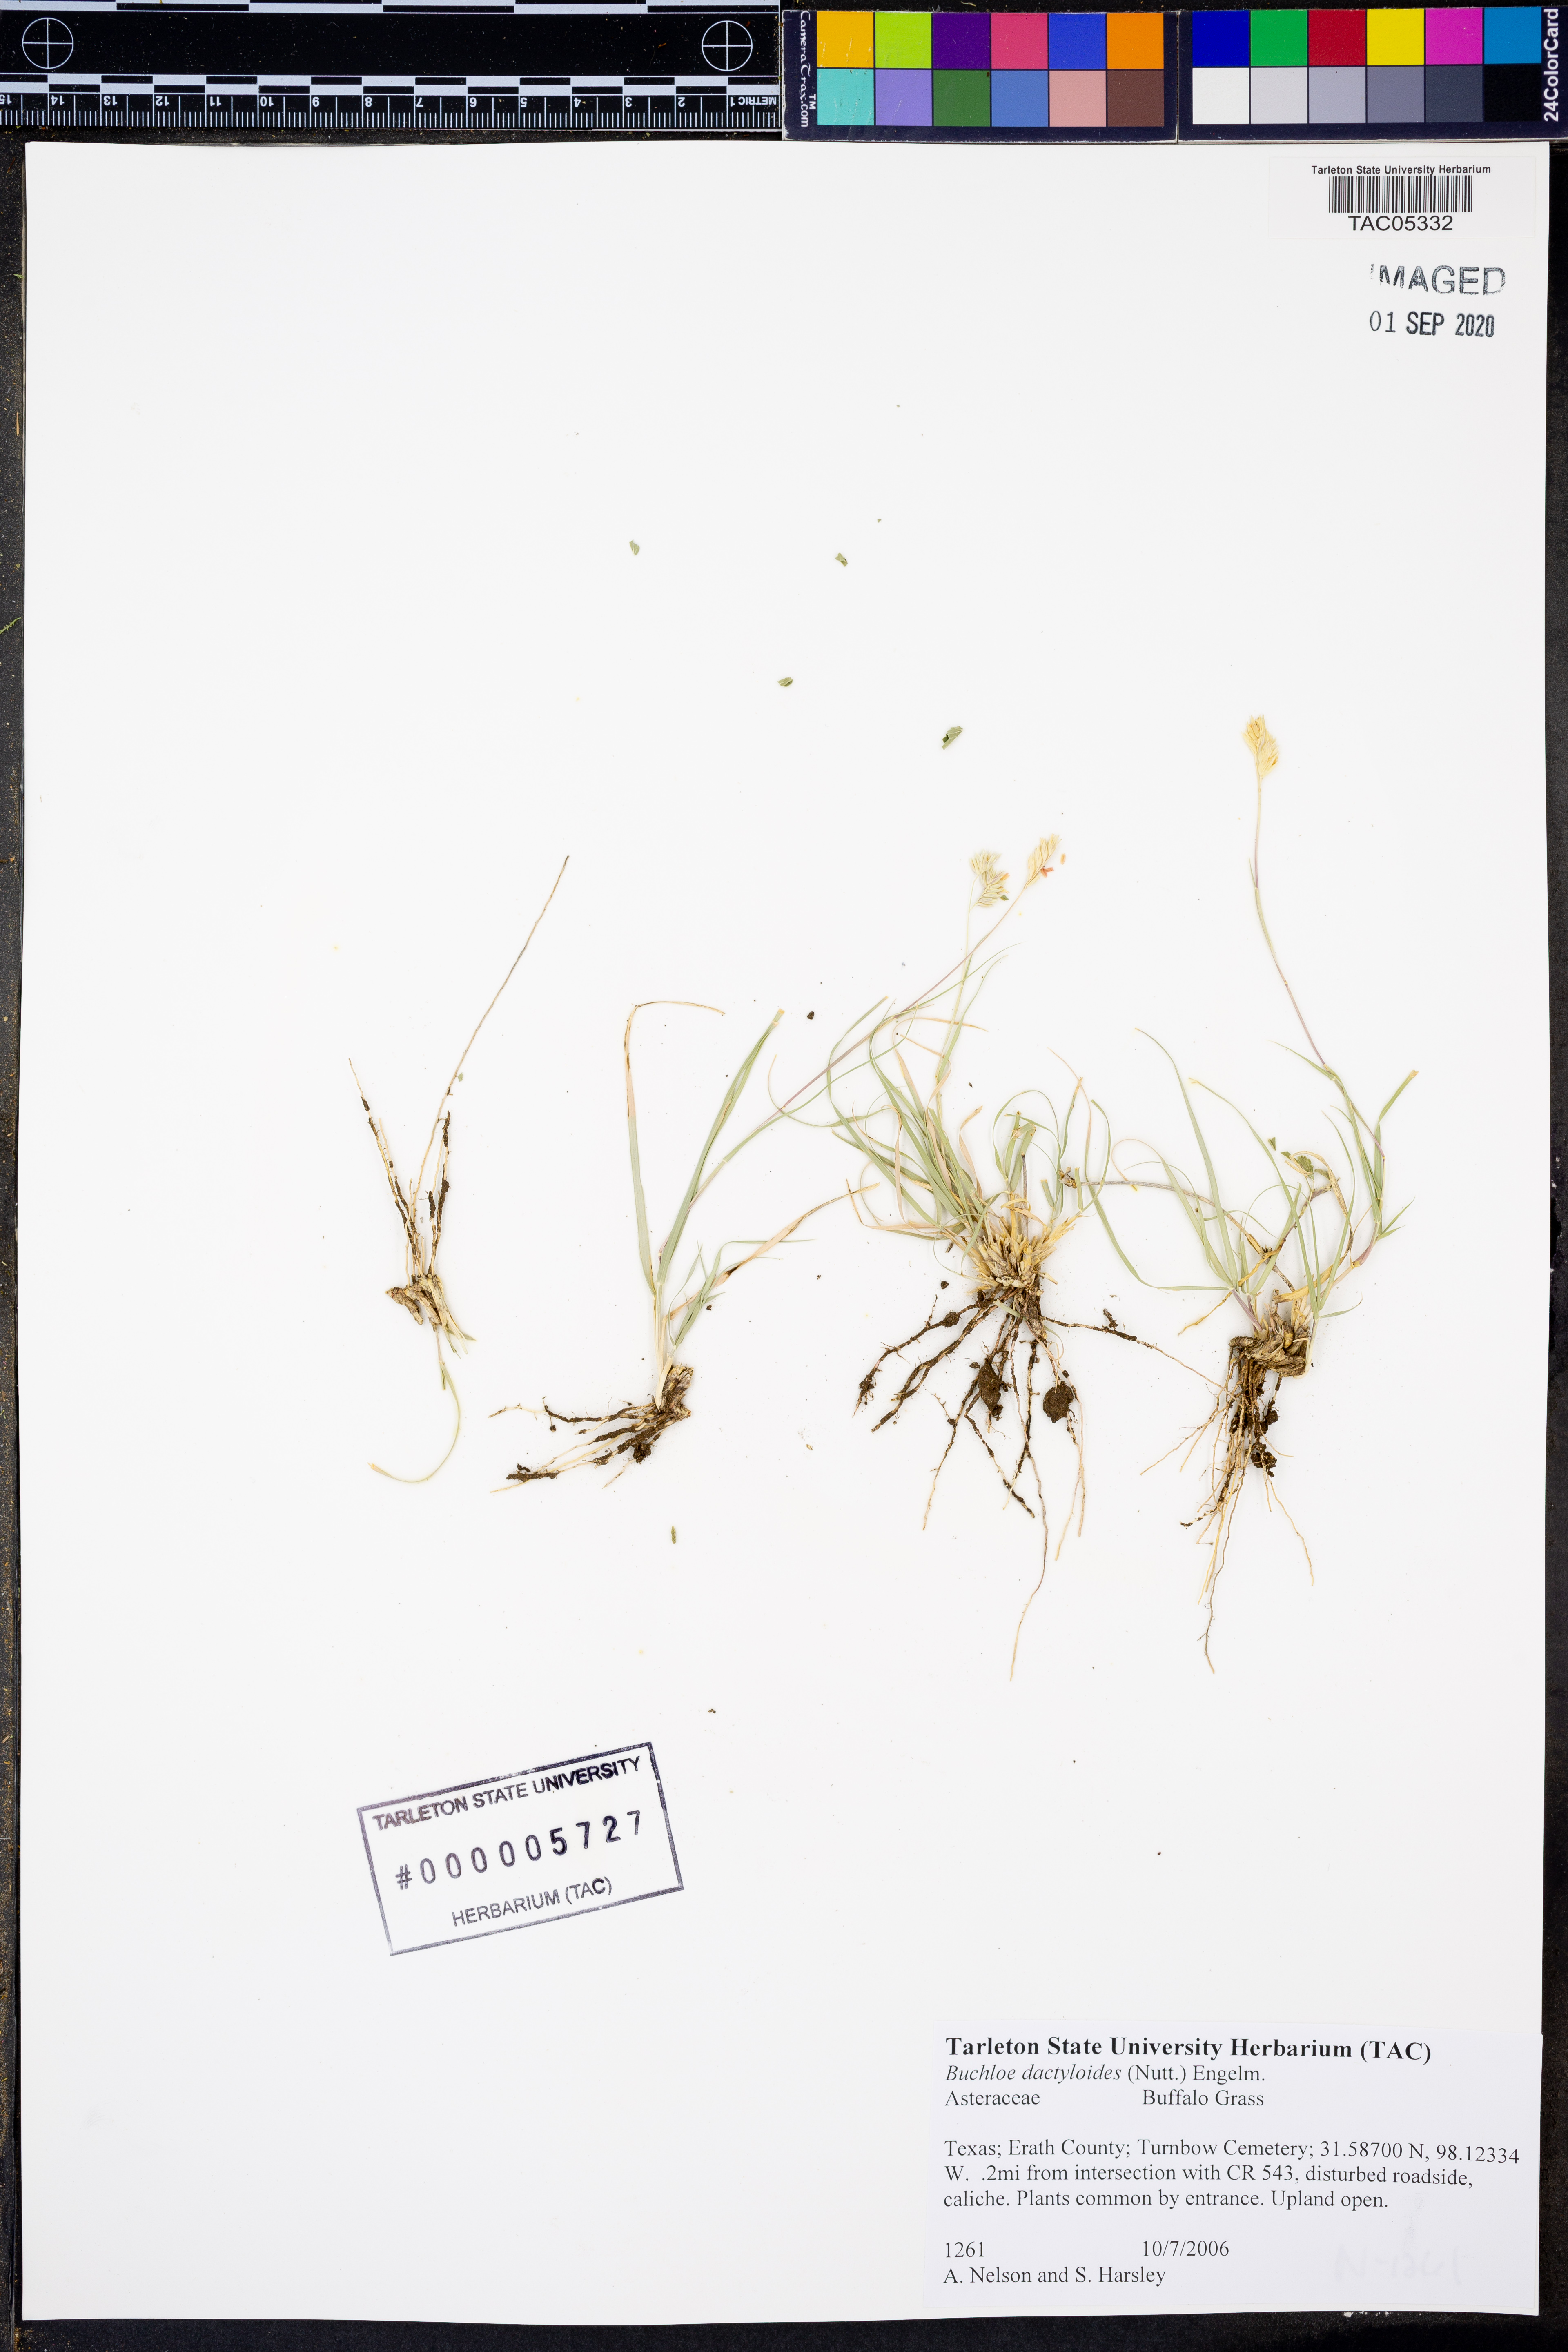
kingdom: Plantae
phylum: Tracheophyta
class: Liliopsida
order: Poales
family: Poaceae
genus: Bouteloua
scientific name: Bouteloua dactyloides
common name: Buffalo grass
